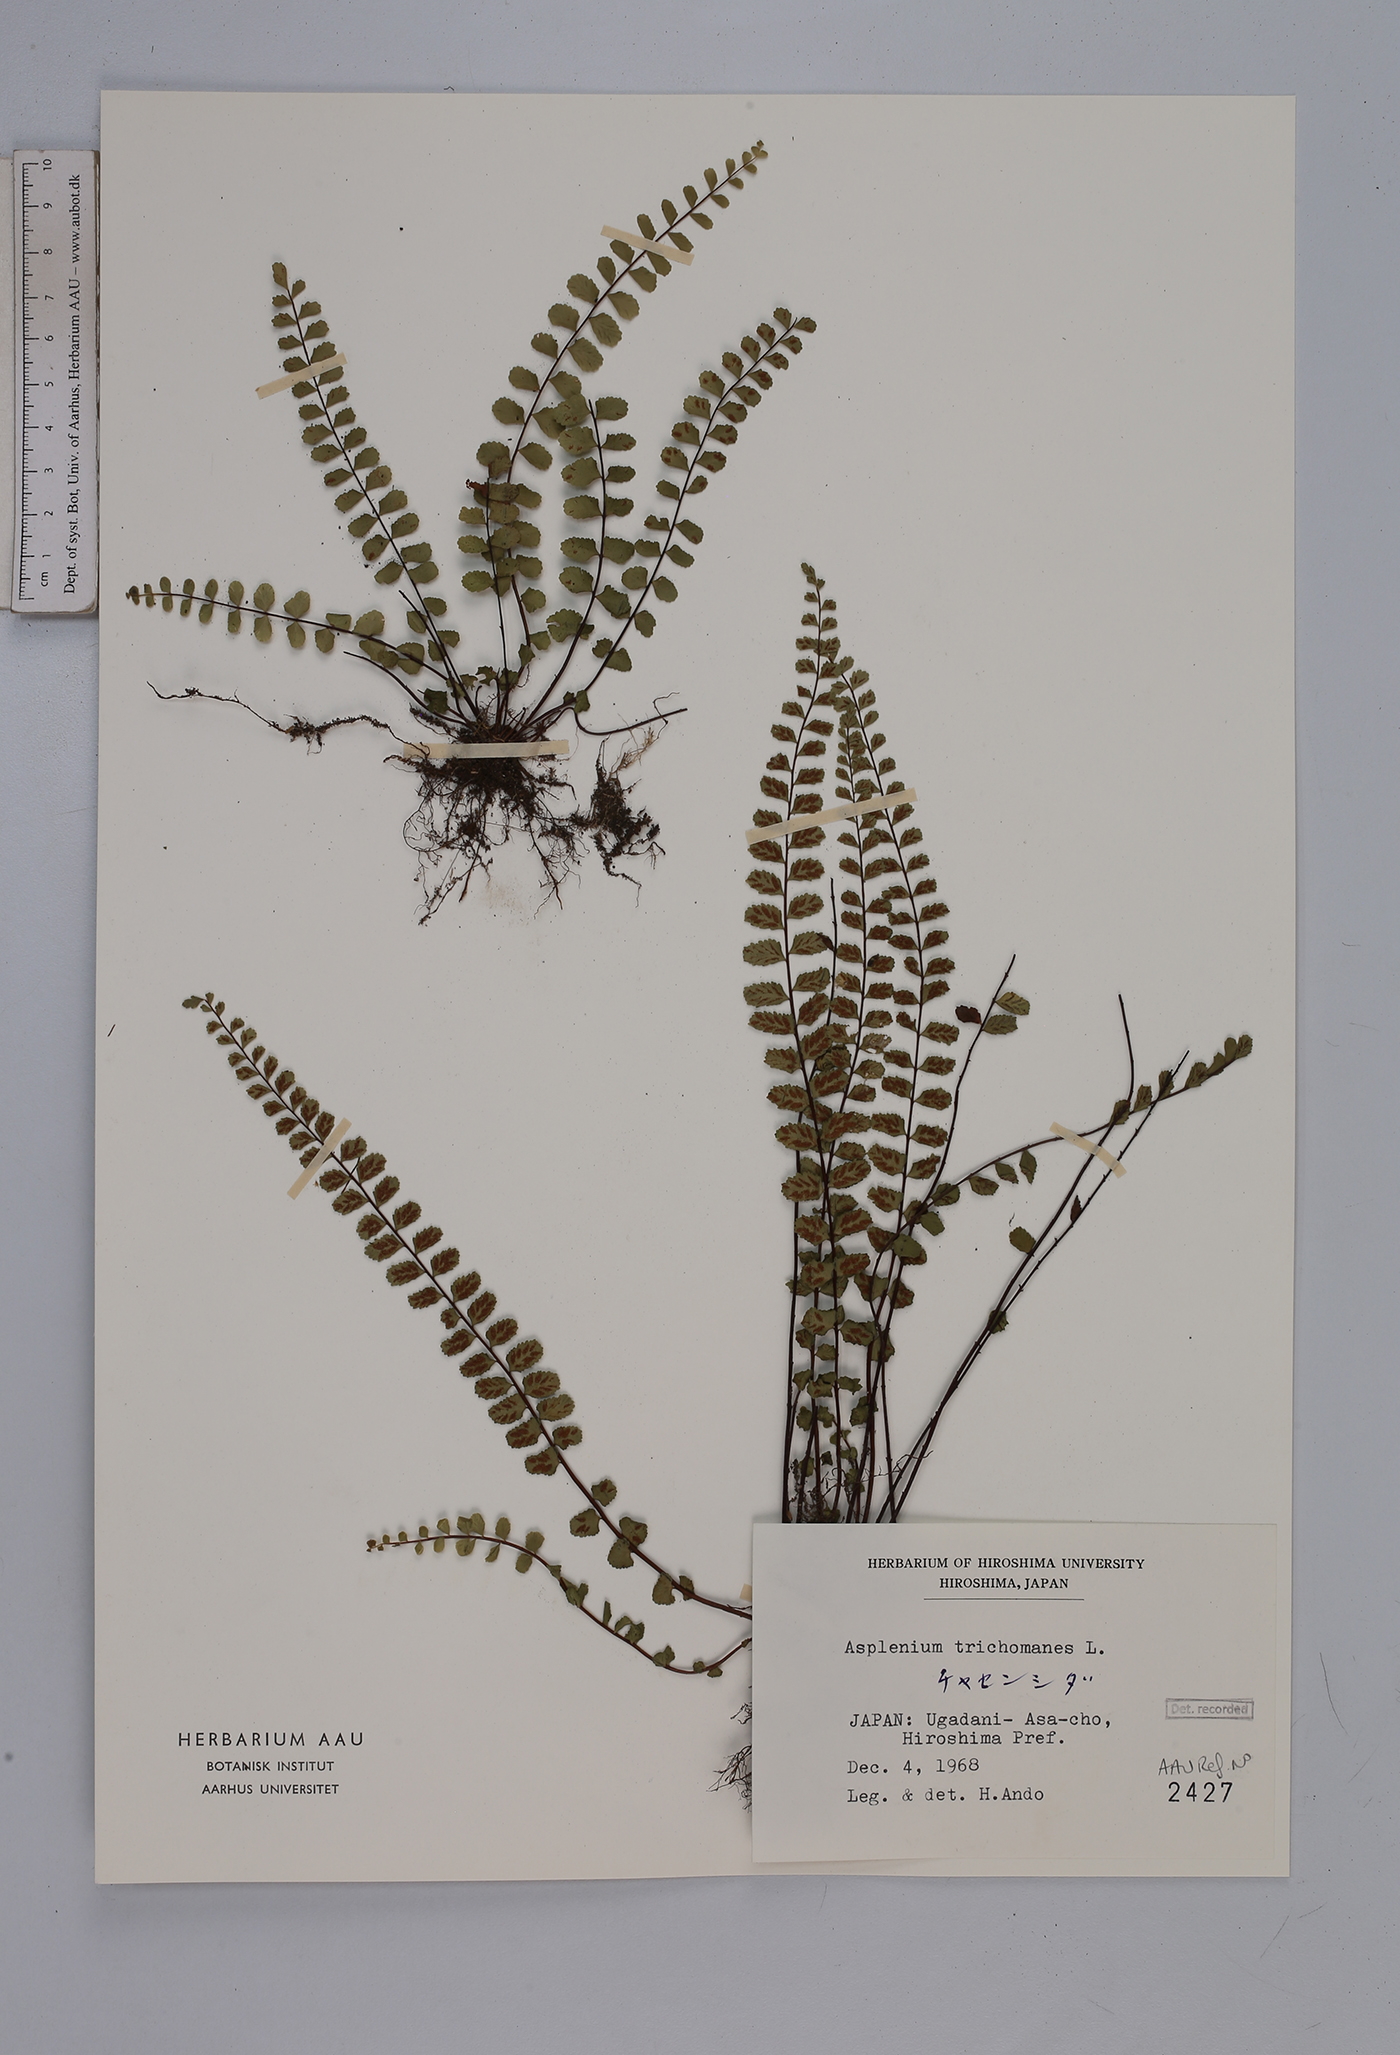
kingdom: Plantae
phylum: Tracheophyta
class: Polypodiopsida
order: Polypodiales
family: Aspleniaceae
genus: Asplenium
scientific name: Asplenium trichomanes
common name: Maidenhair spleenwort
